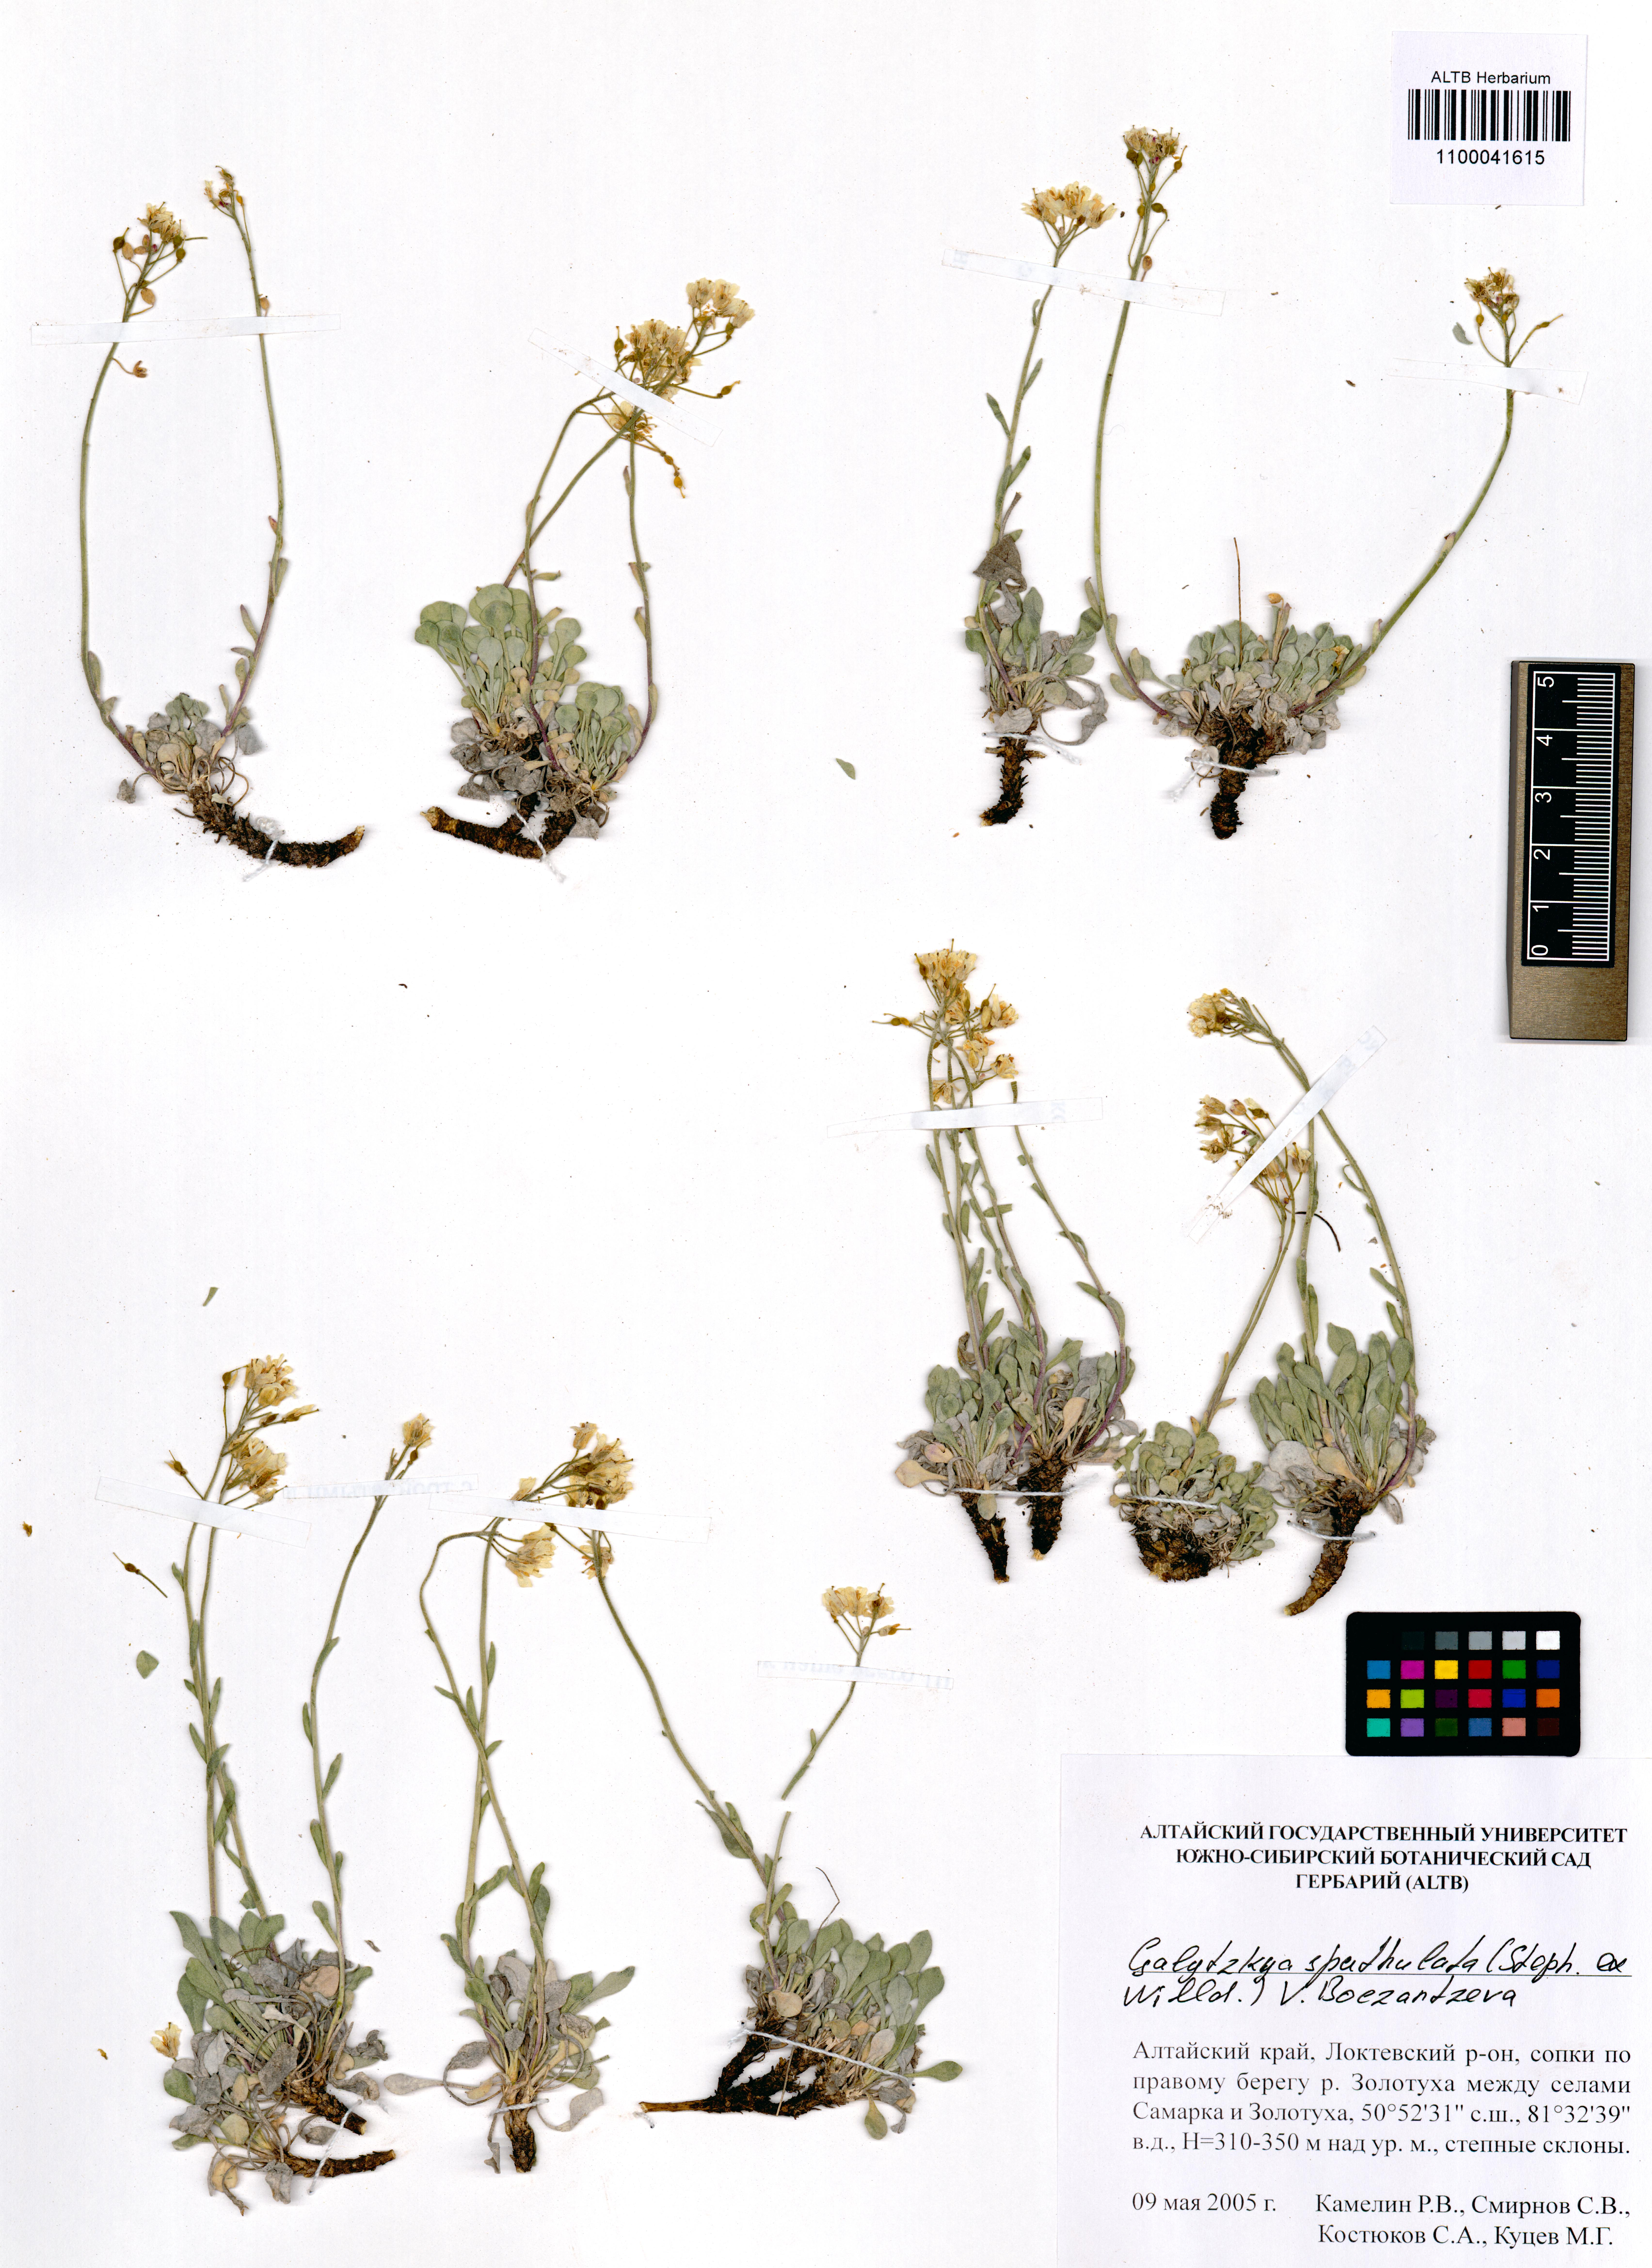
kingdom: Plantae
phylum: Tracheophyta
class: Magnoliopsida
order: Brassicales
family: Brassicaceae
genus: Galitzkya
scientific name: Galitzkya spathulata
